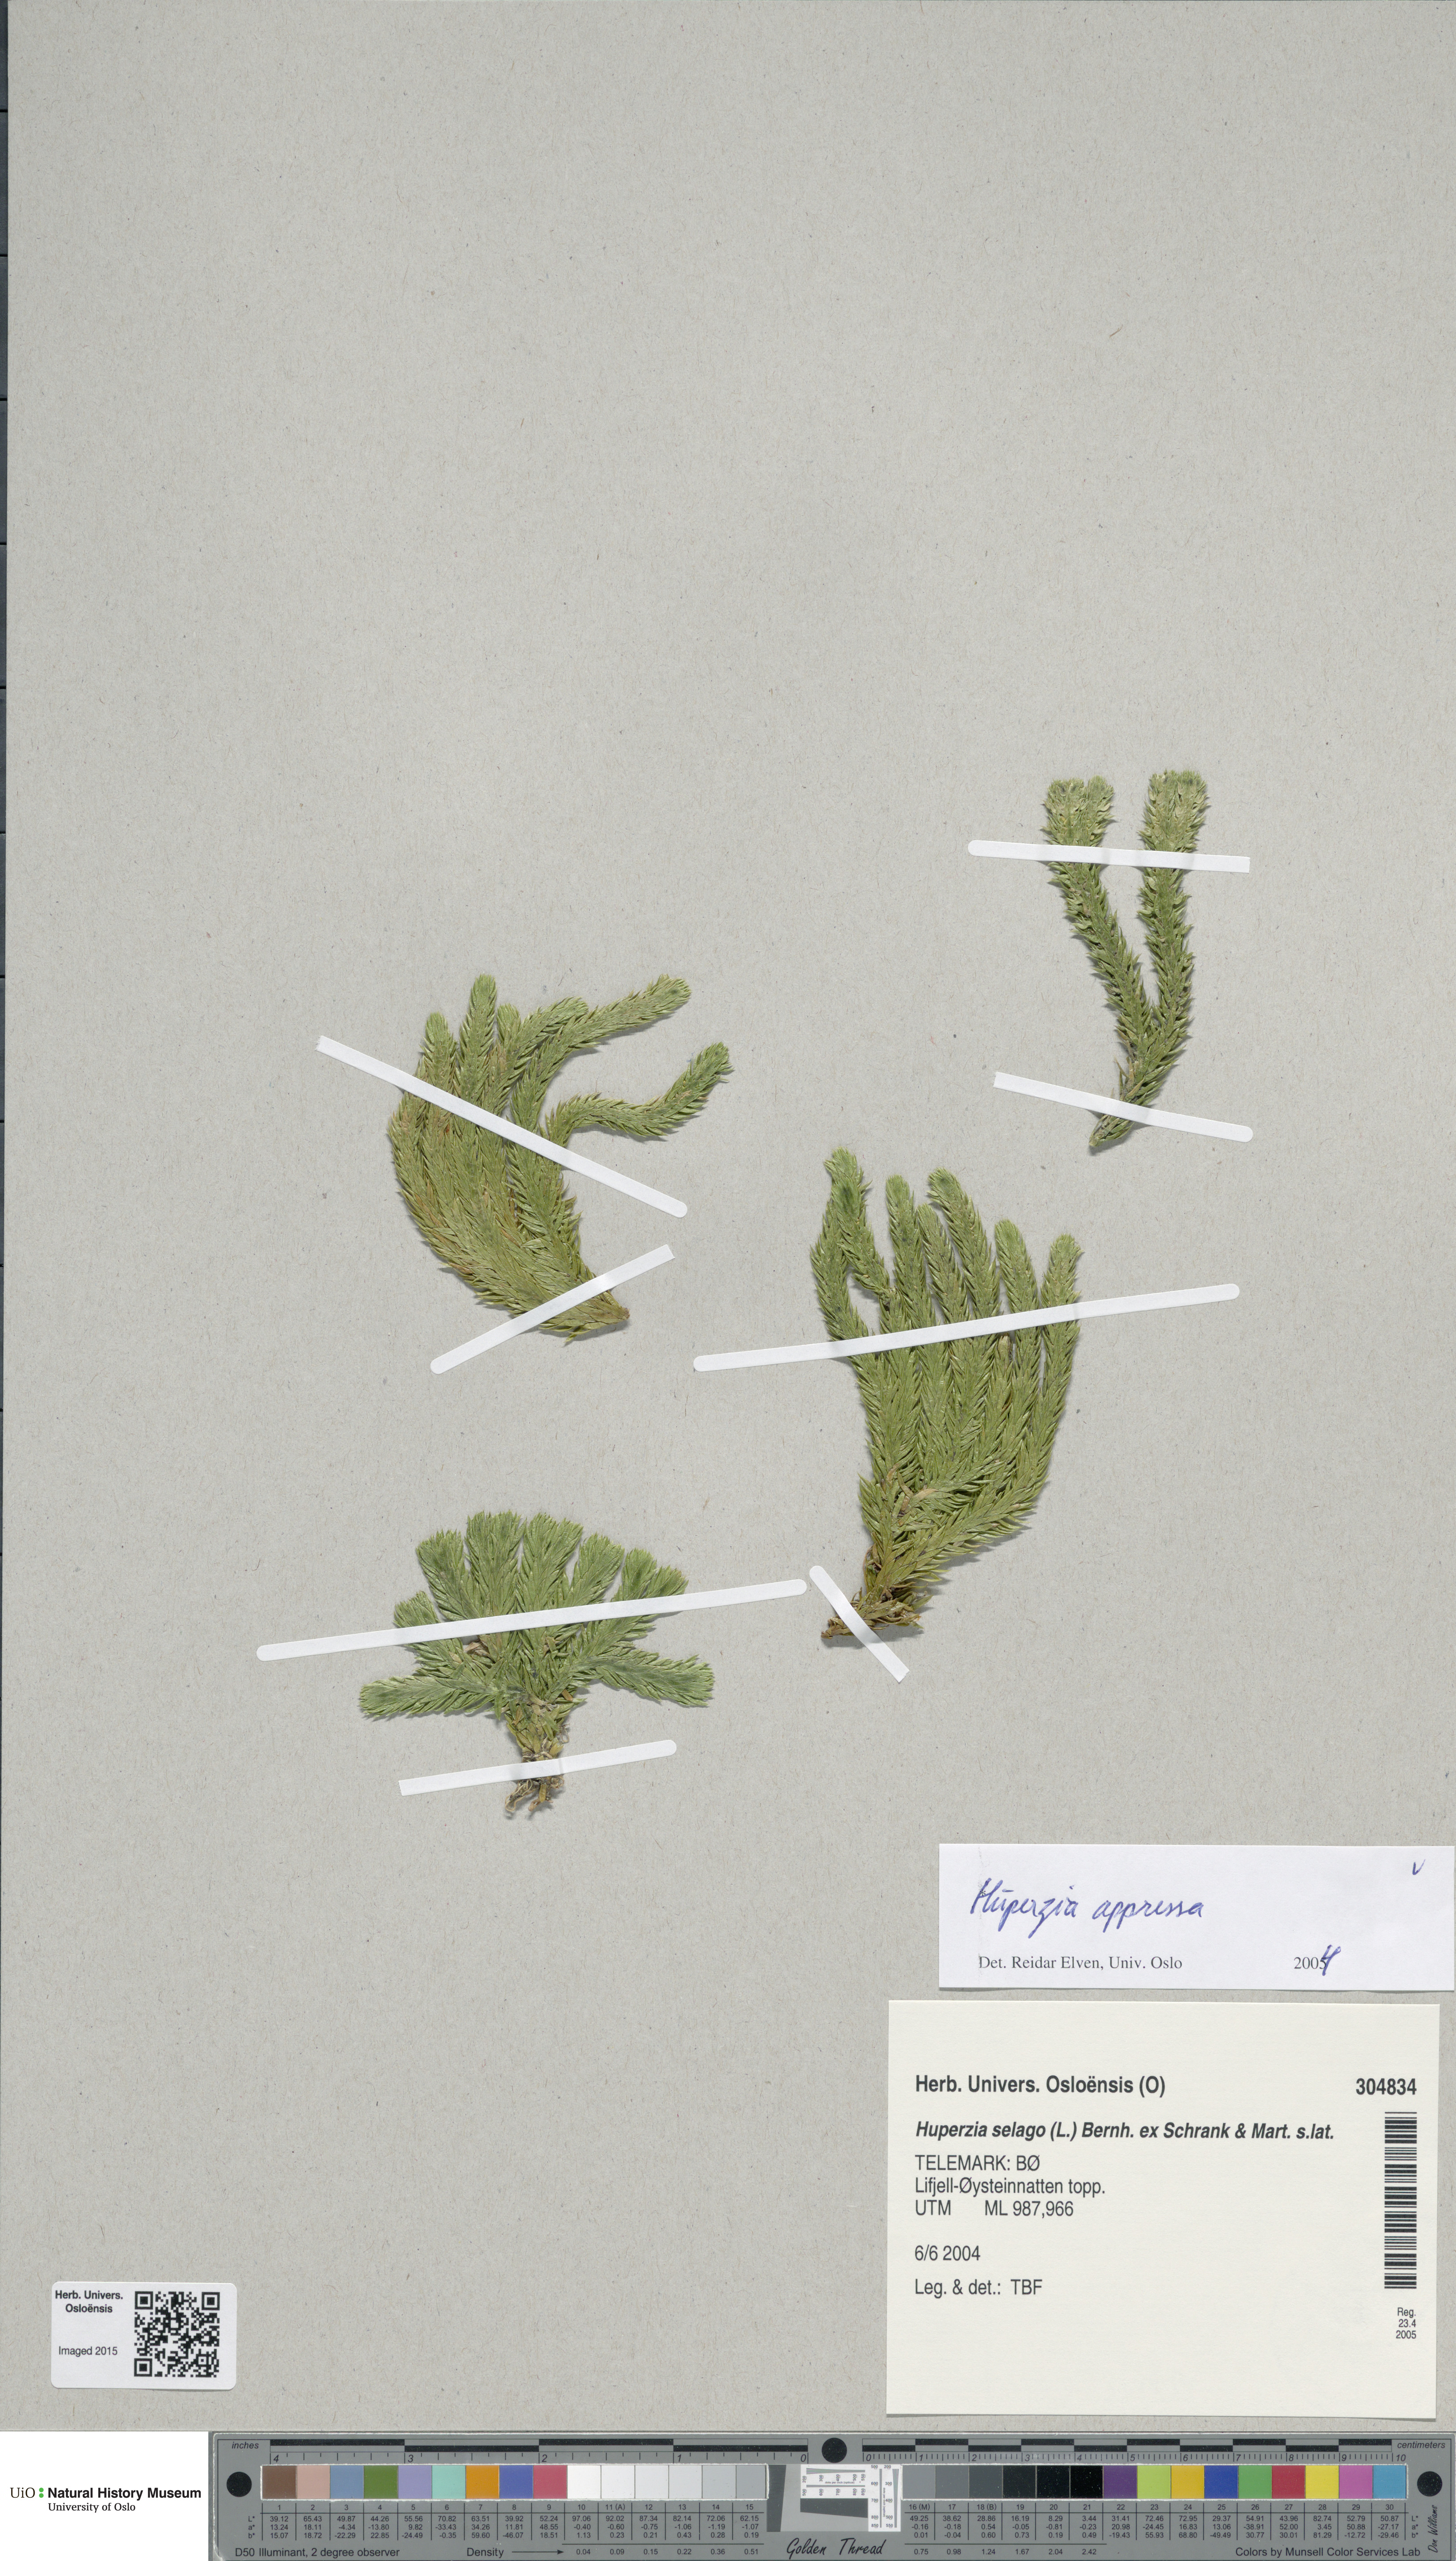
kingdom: Plantae
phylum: Tracheophyta
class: Lycopodiopsida
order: Lycopodiales
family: Lycopodiaceae
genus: Huperzia
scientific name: Huperzia selago
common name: Northern firmoss
